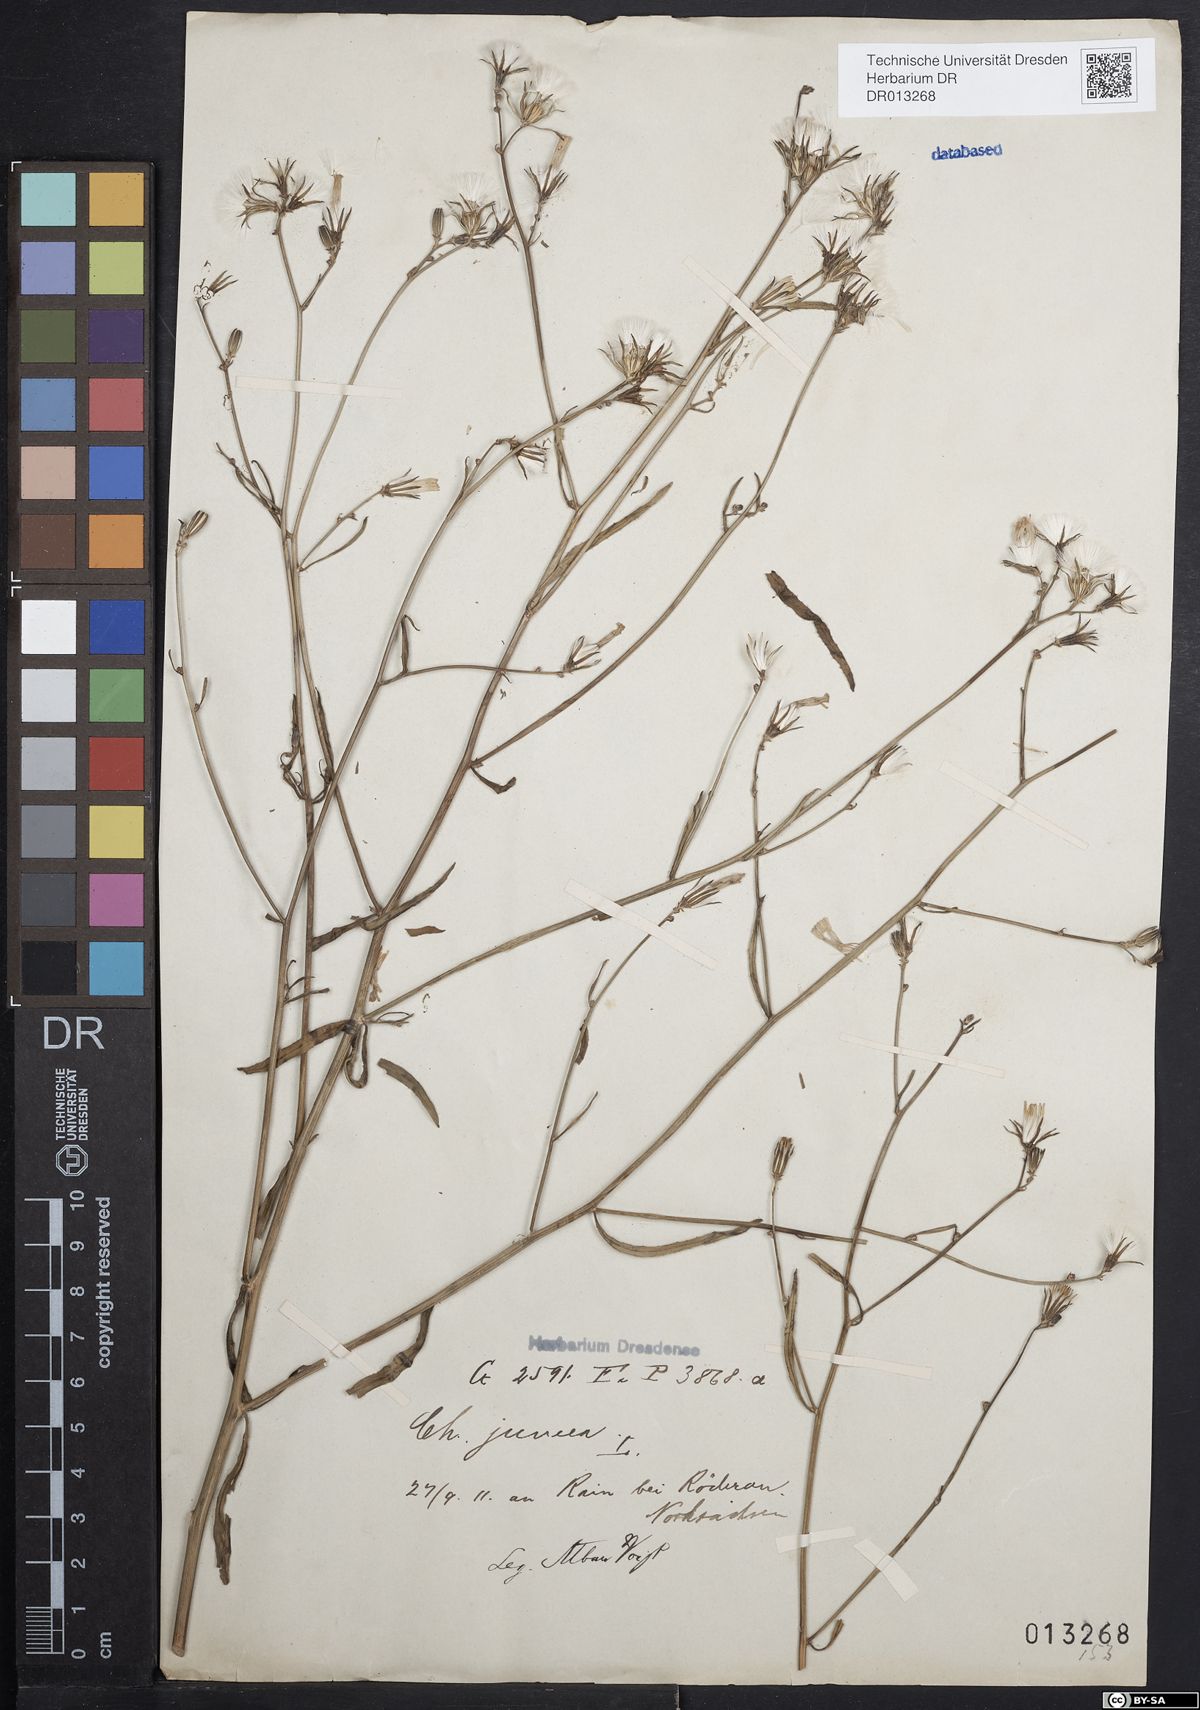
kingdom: Plantae
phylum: Tracheophyta
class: Magnoliopsida
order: Asterales
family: Asteraceae
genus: Chondrilla
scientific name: Chondrilla juncea
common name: Skeleton weed
